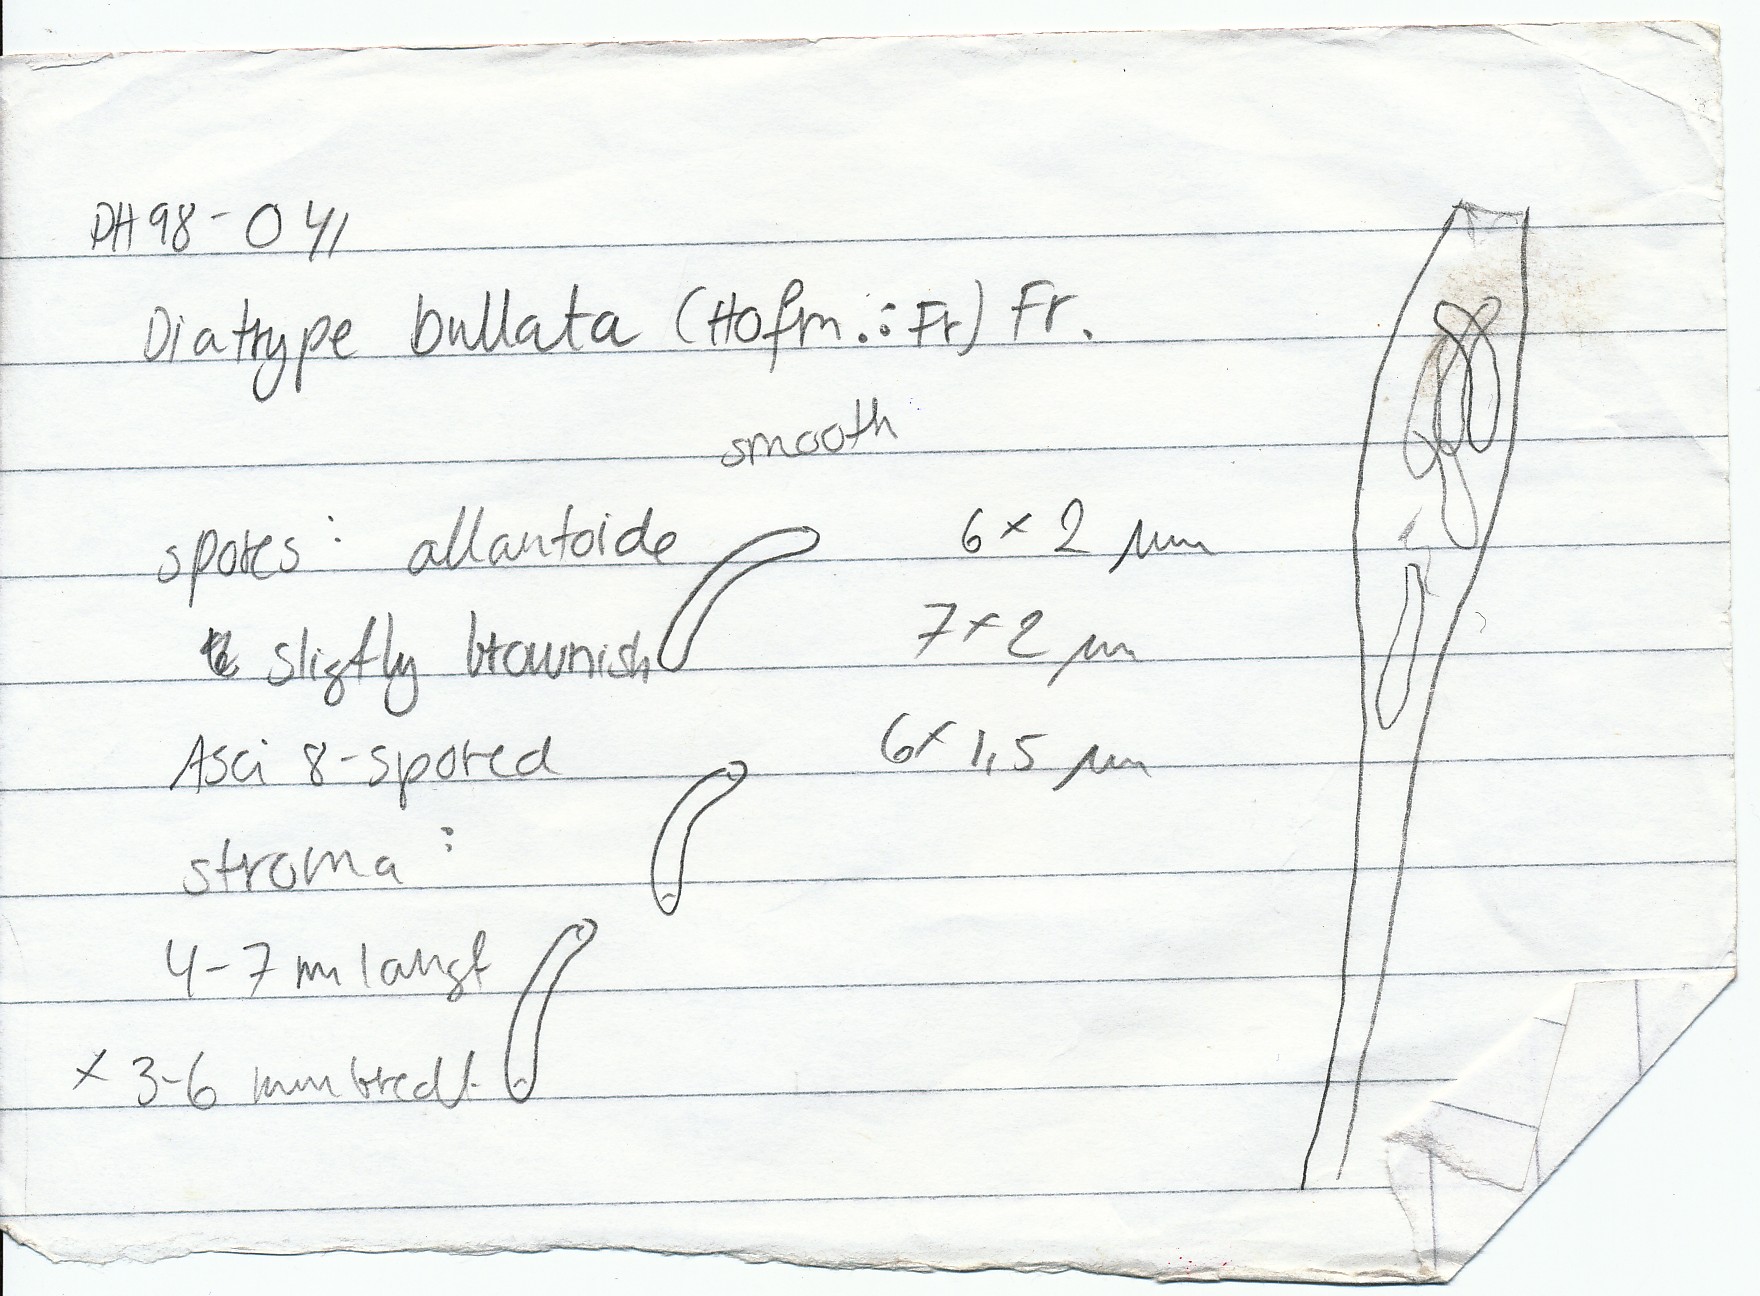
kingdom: Fungi
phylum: Ascomycota
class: Sordariomycetes
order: Xylariales
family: Diatrypaceae
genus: Diatrype
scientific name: Diatrype bullata
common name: pile-kulskorpe
